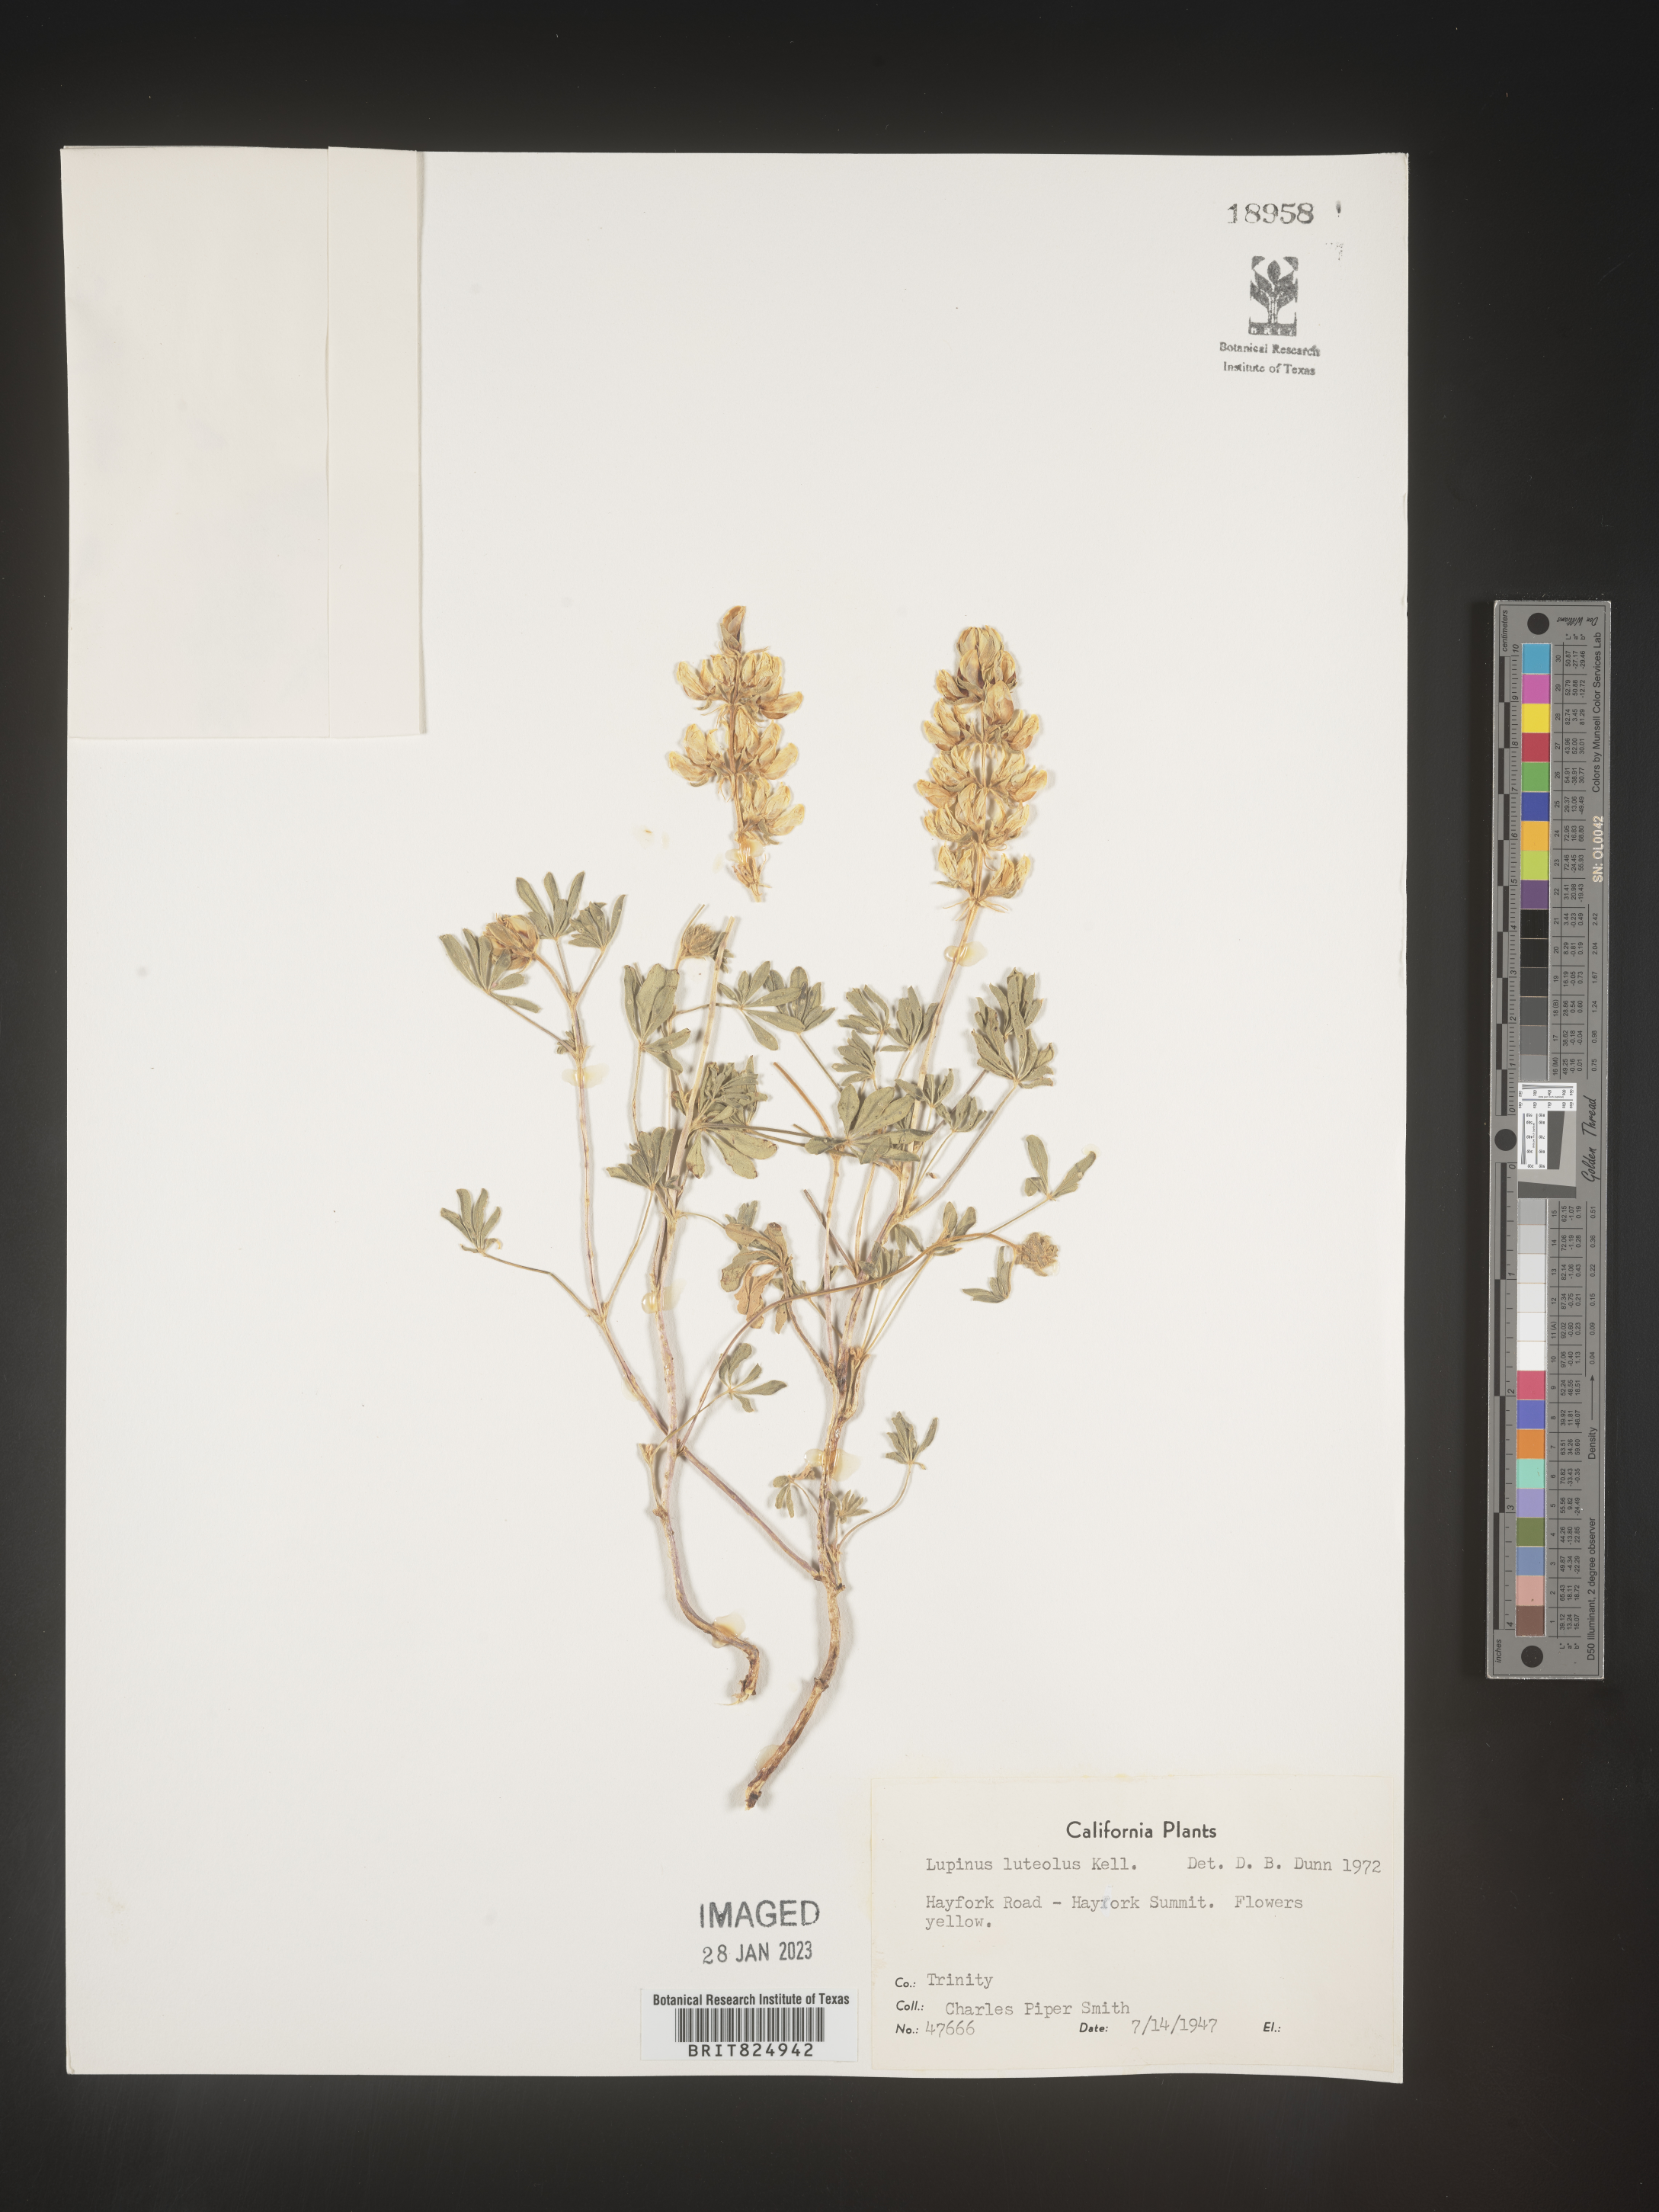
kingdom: Plantae
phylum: Tracheophyta
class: Magnoliopsida
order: Fabales
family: Fabaceae
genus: Lupinus
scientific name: Lupinus
